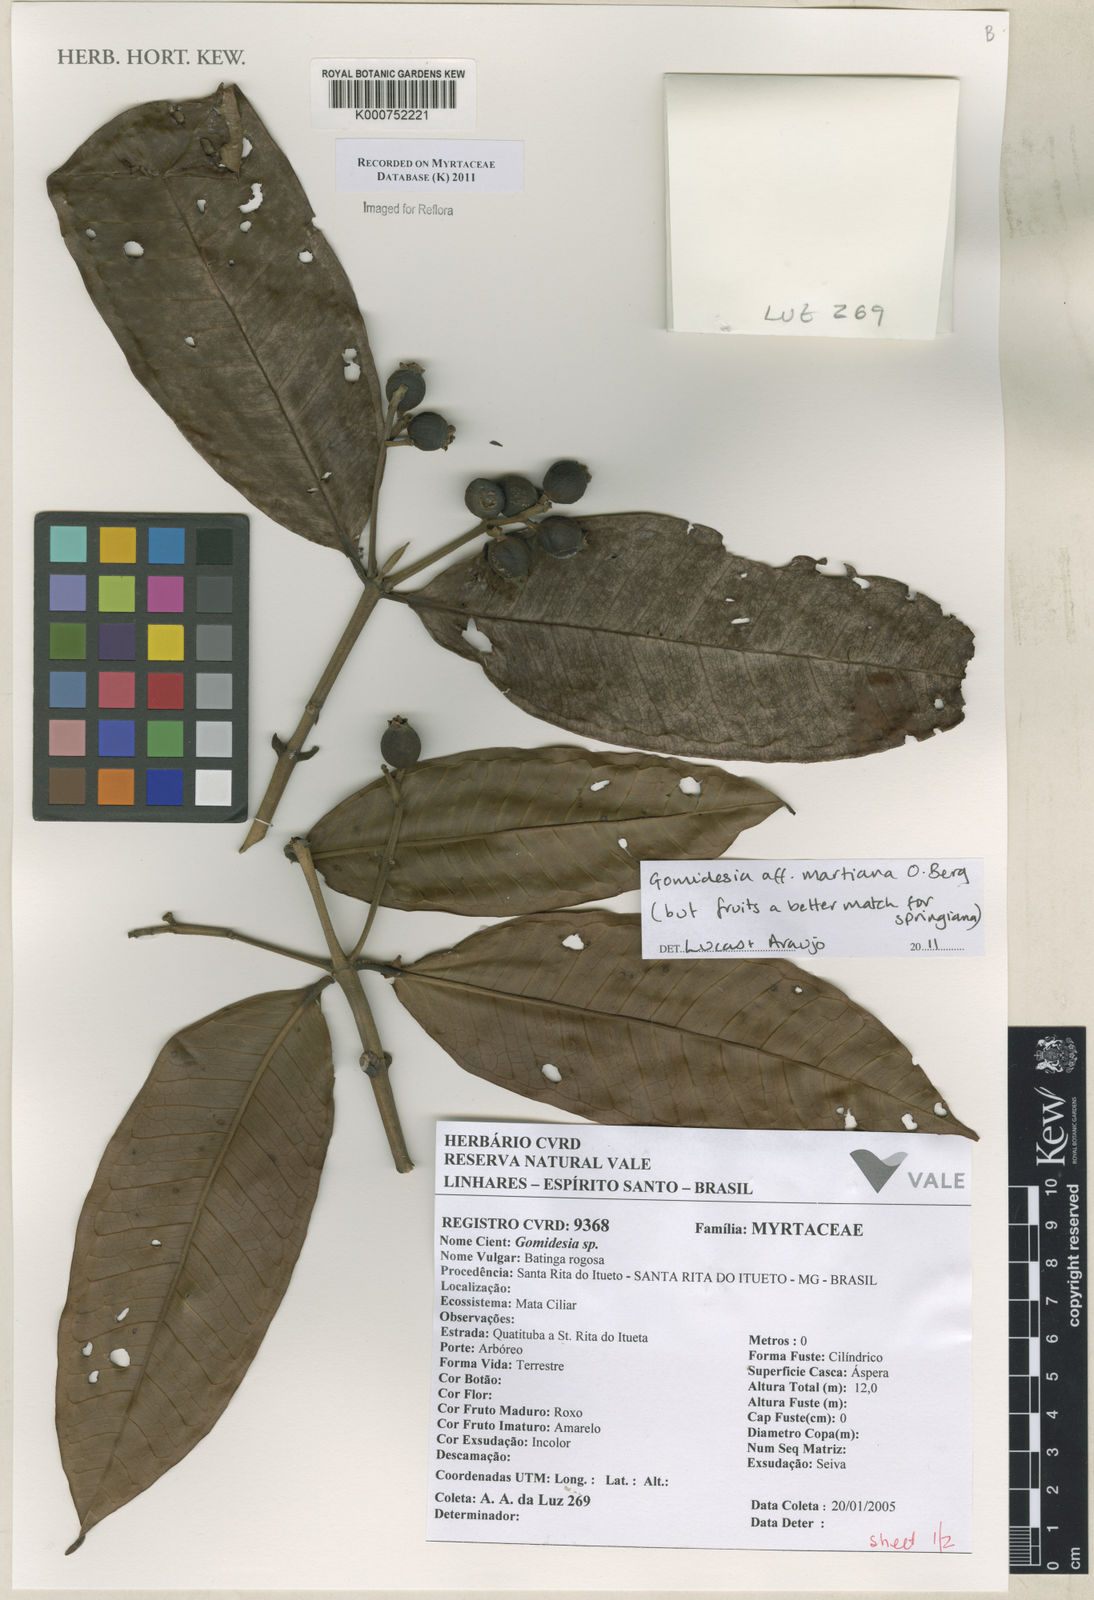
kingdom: Plantae
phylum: Tracheophyta
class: Magnoliopsida
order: Myrtales
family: Myrtaceae
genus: Myrcia
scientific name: Myrcia vittoriana
